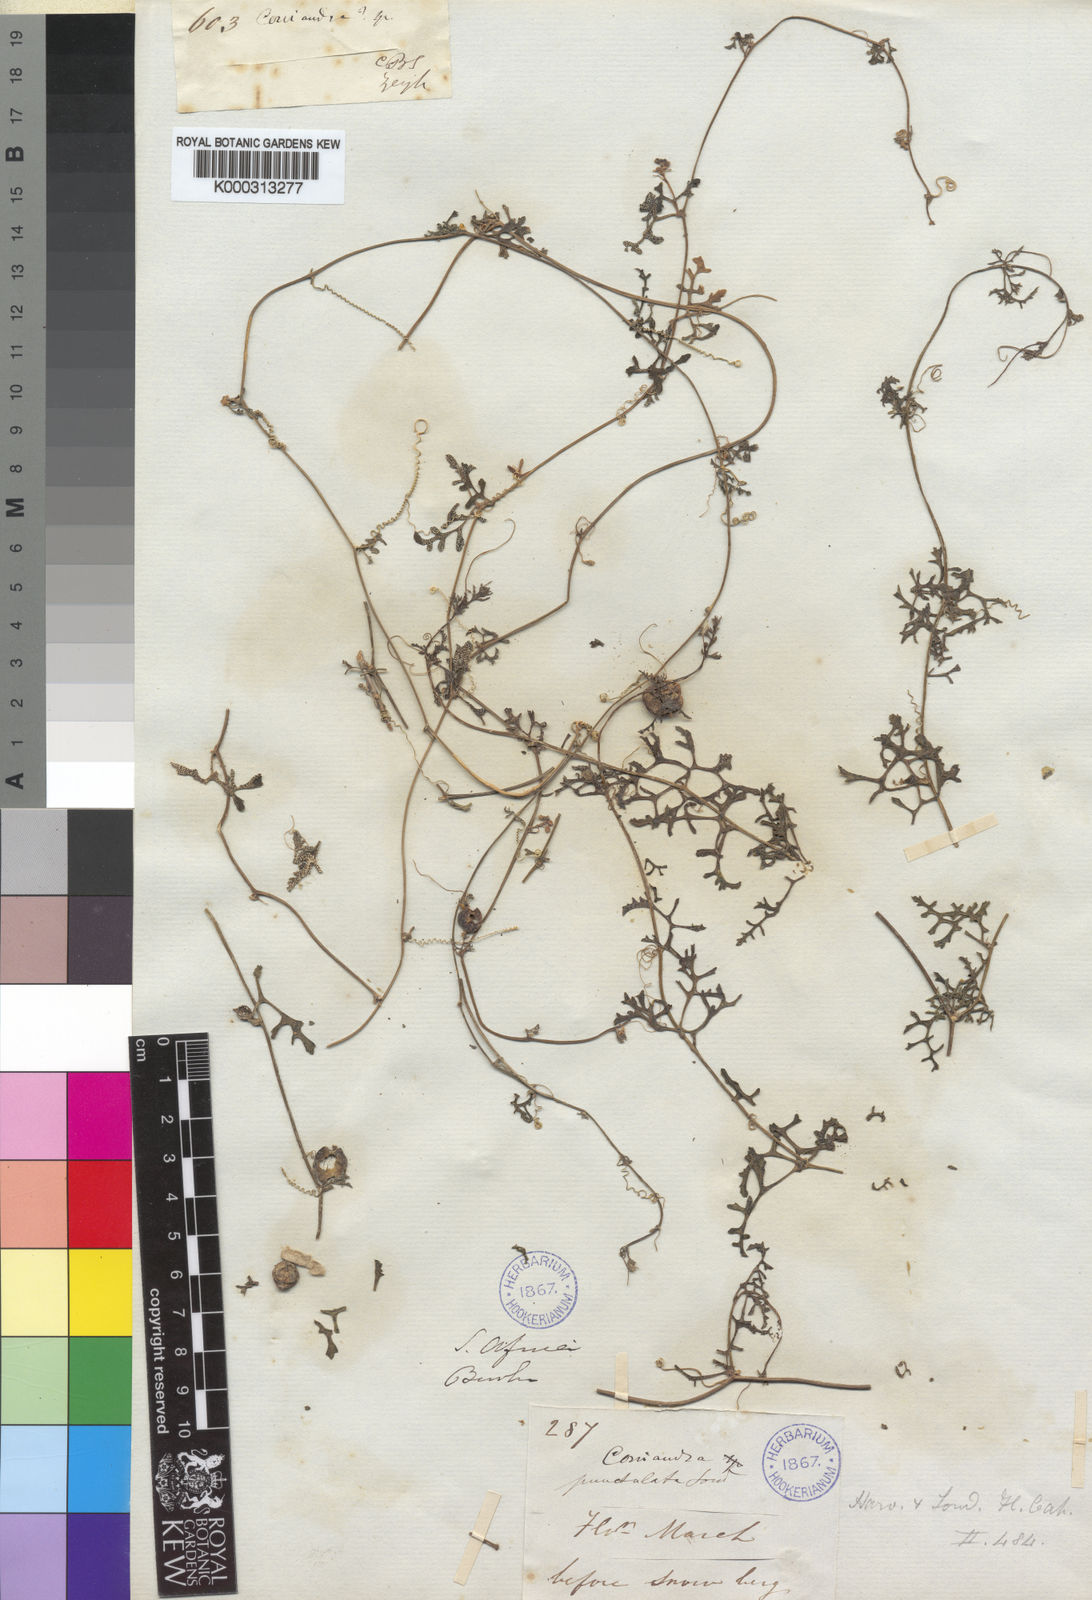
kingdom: Plantae
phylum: Tracheophyta
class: Magnoliopsida
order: Cucurbitales
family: Cucurbitaceae
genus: Kedrostis
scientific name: Kedrostis africana
